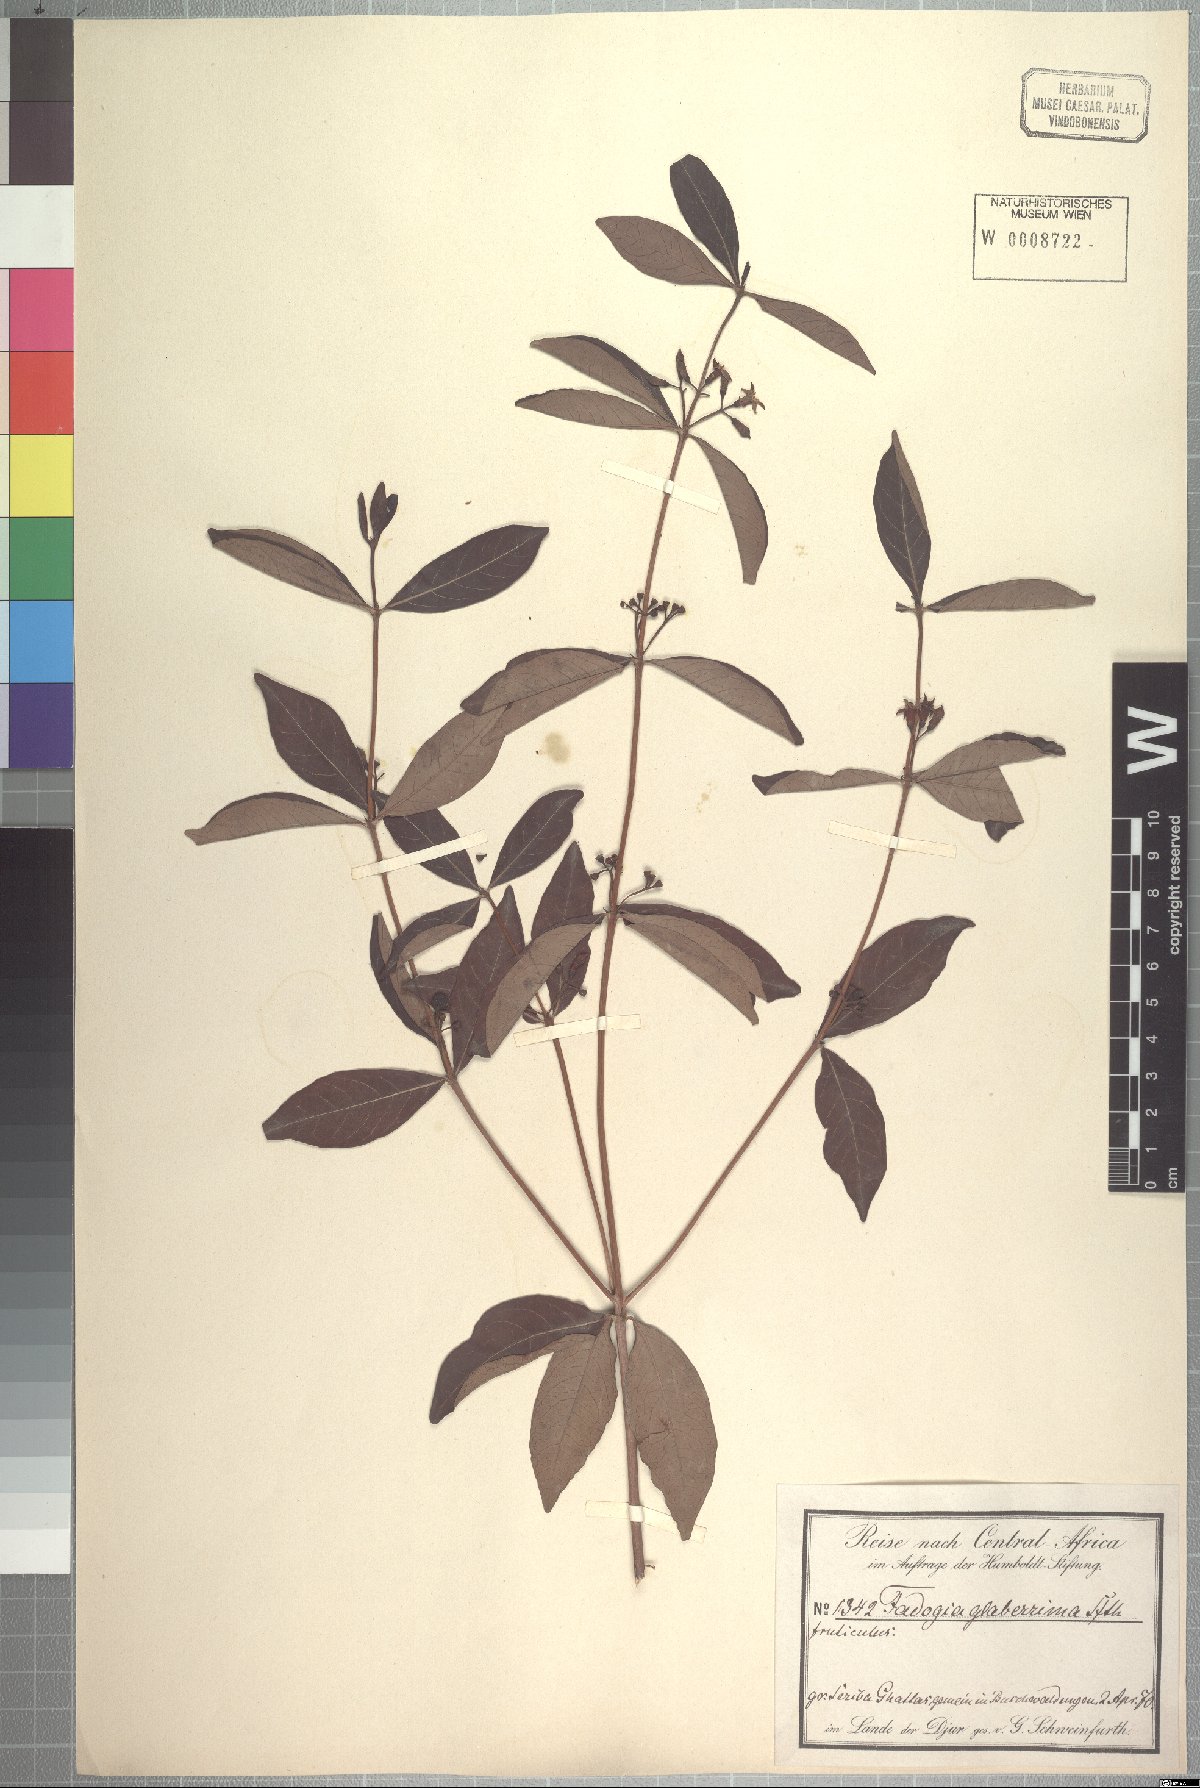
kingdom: Plantae
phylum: Tracheophyta
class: Magnoliopsida
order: Gentianales
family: Rubiaceae
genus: Fadogia
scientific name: Fadogia glaberrima
